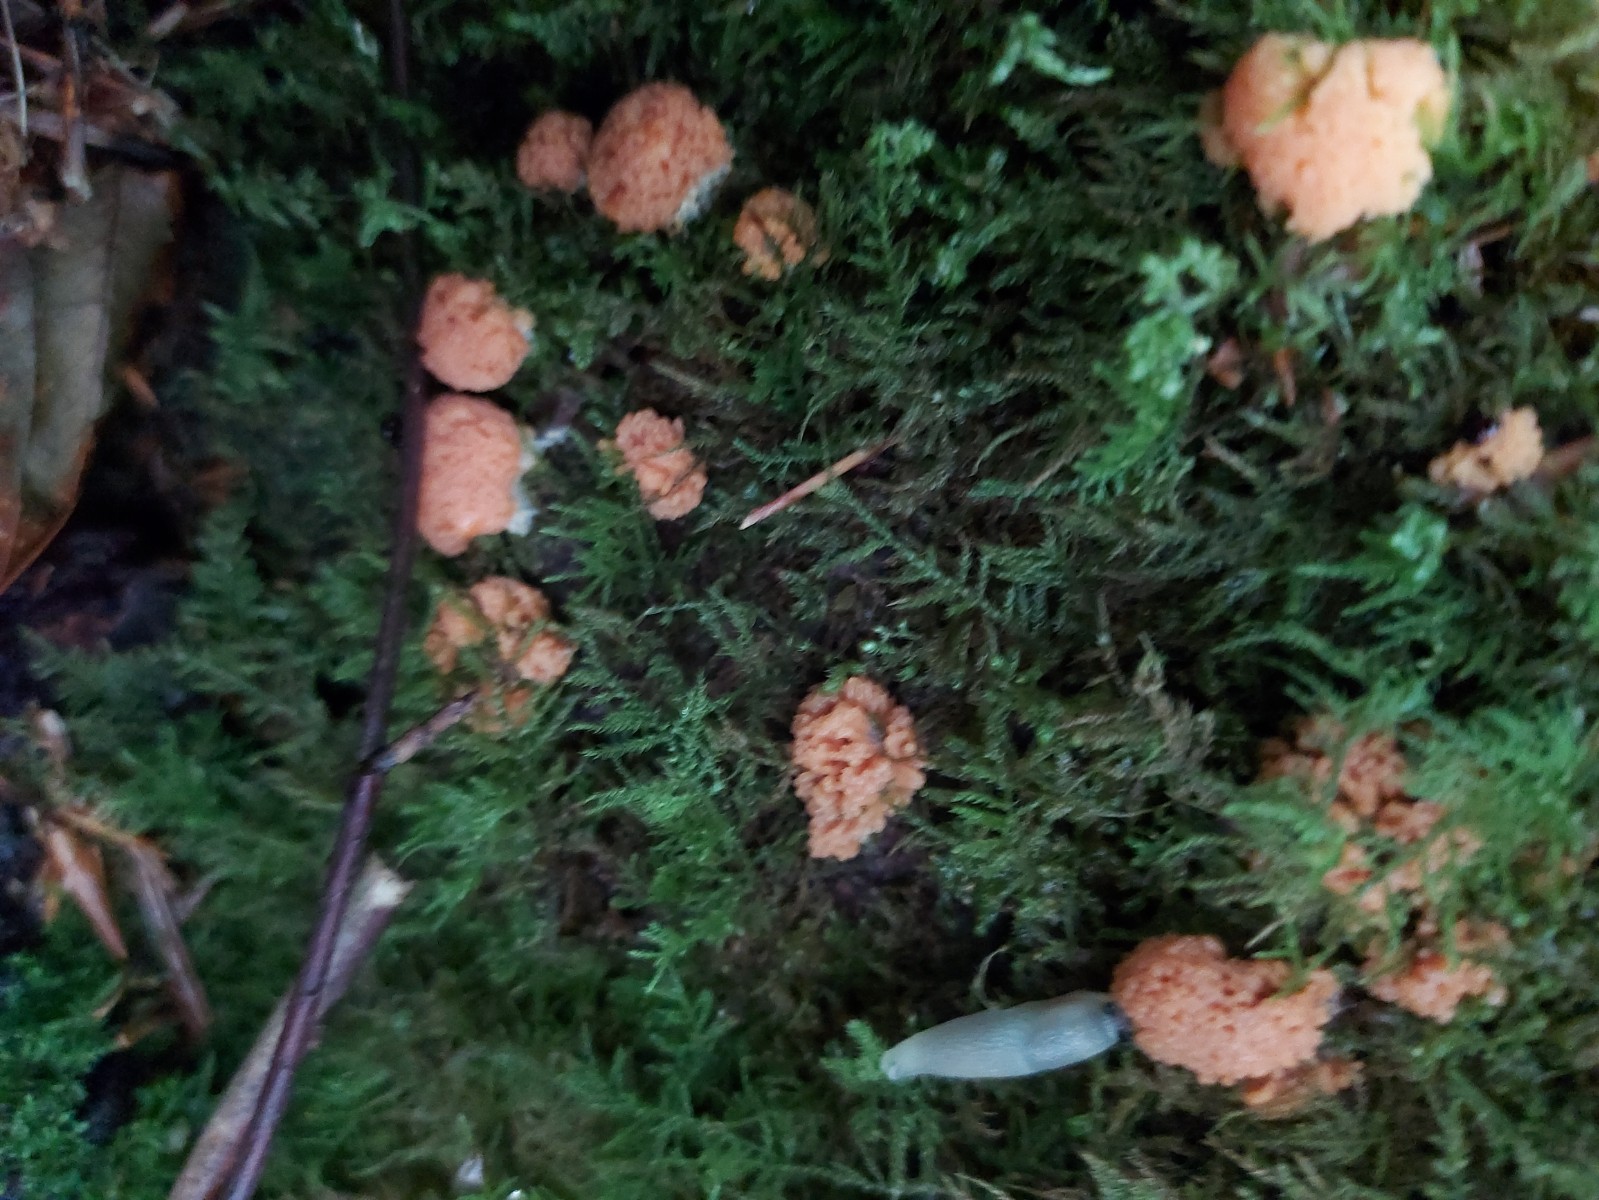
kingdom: Protozoa
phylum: Mycetozoa
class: Myxomycetes
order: Cribrariales
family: Tubiferaceae
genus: Tubifera
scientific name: Tubifera ferruginosa
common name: kanel-støvrør
